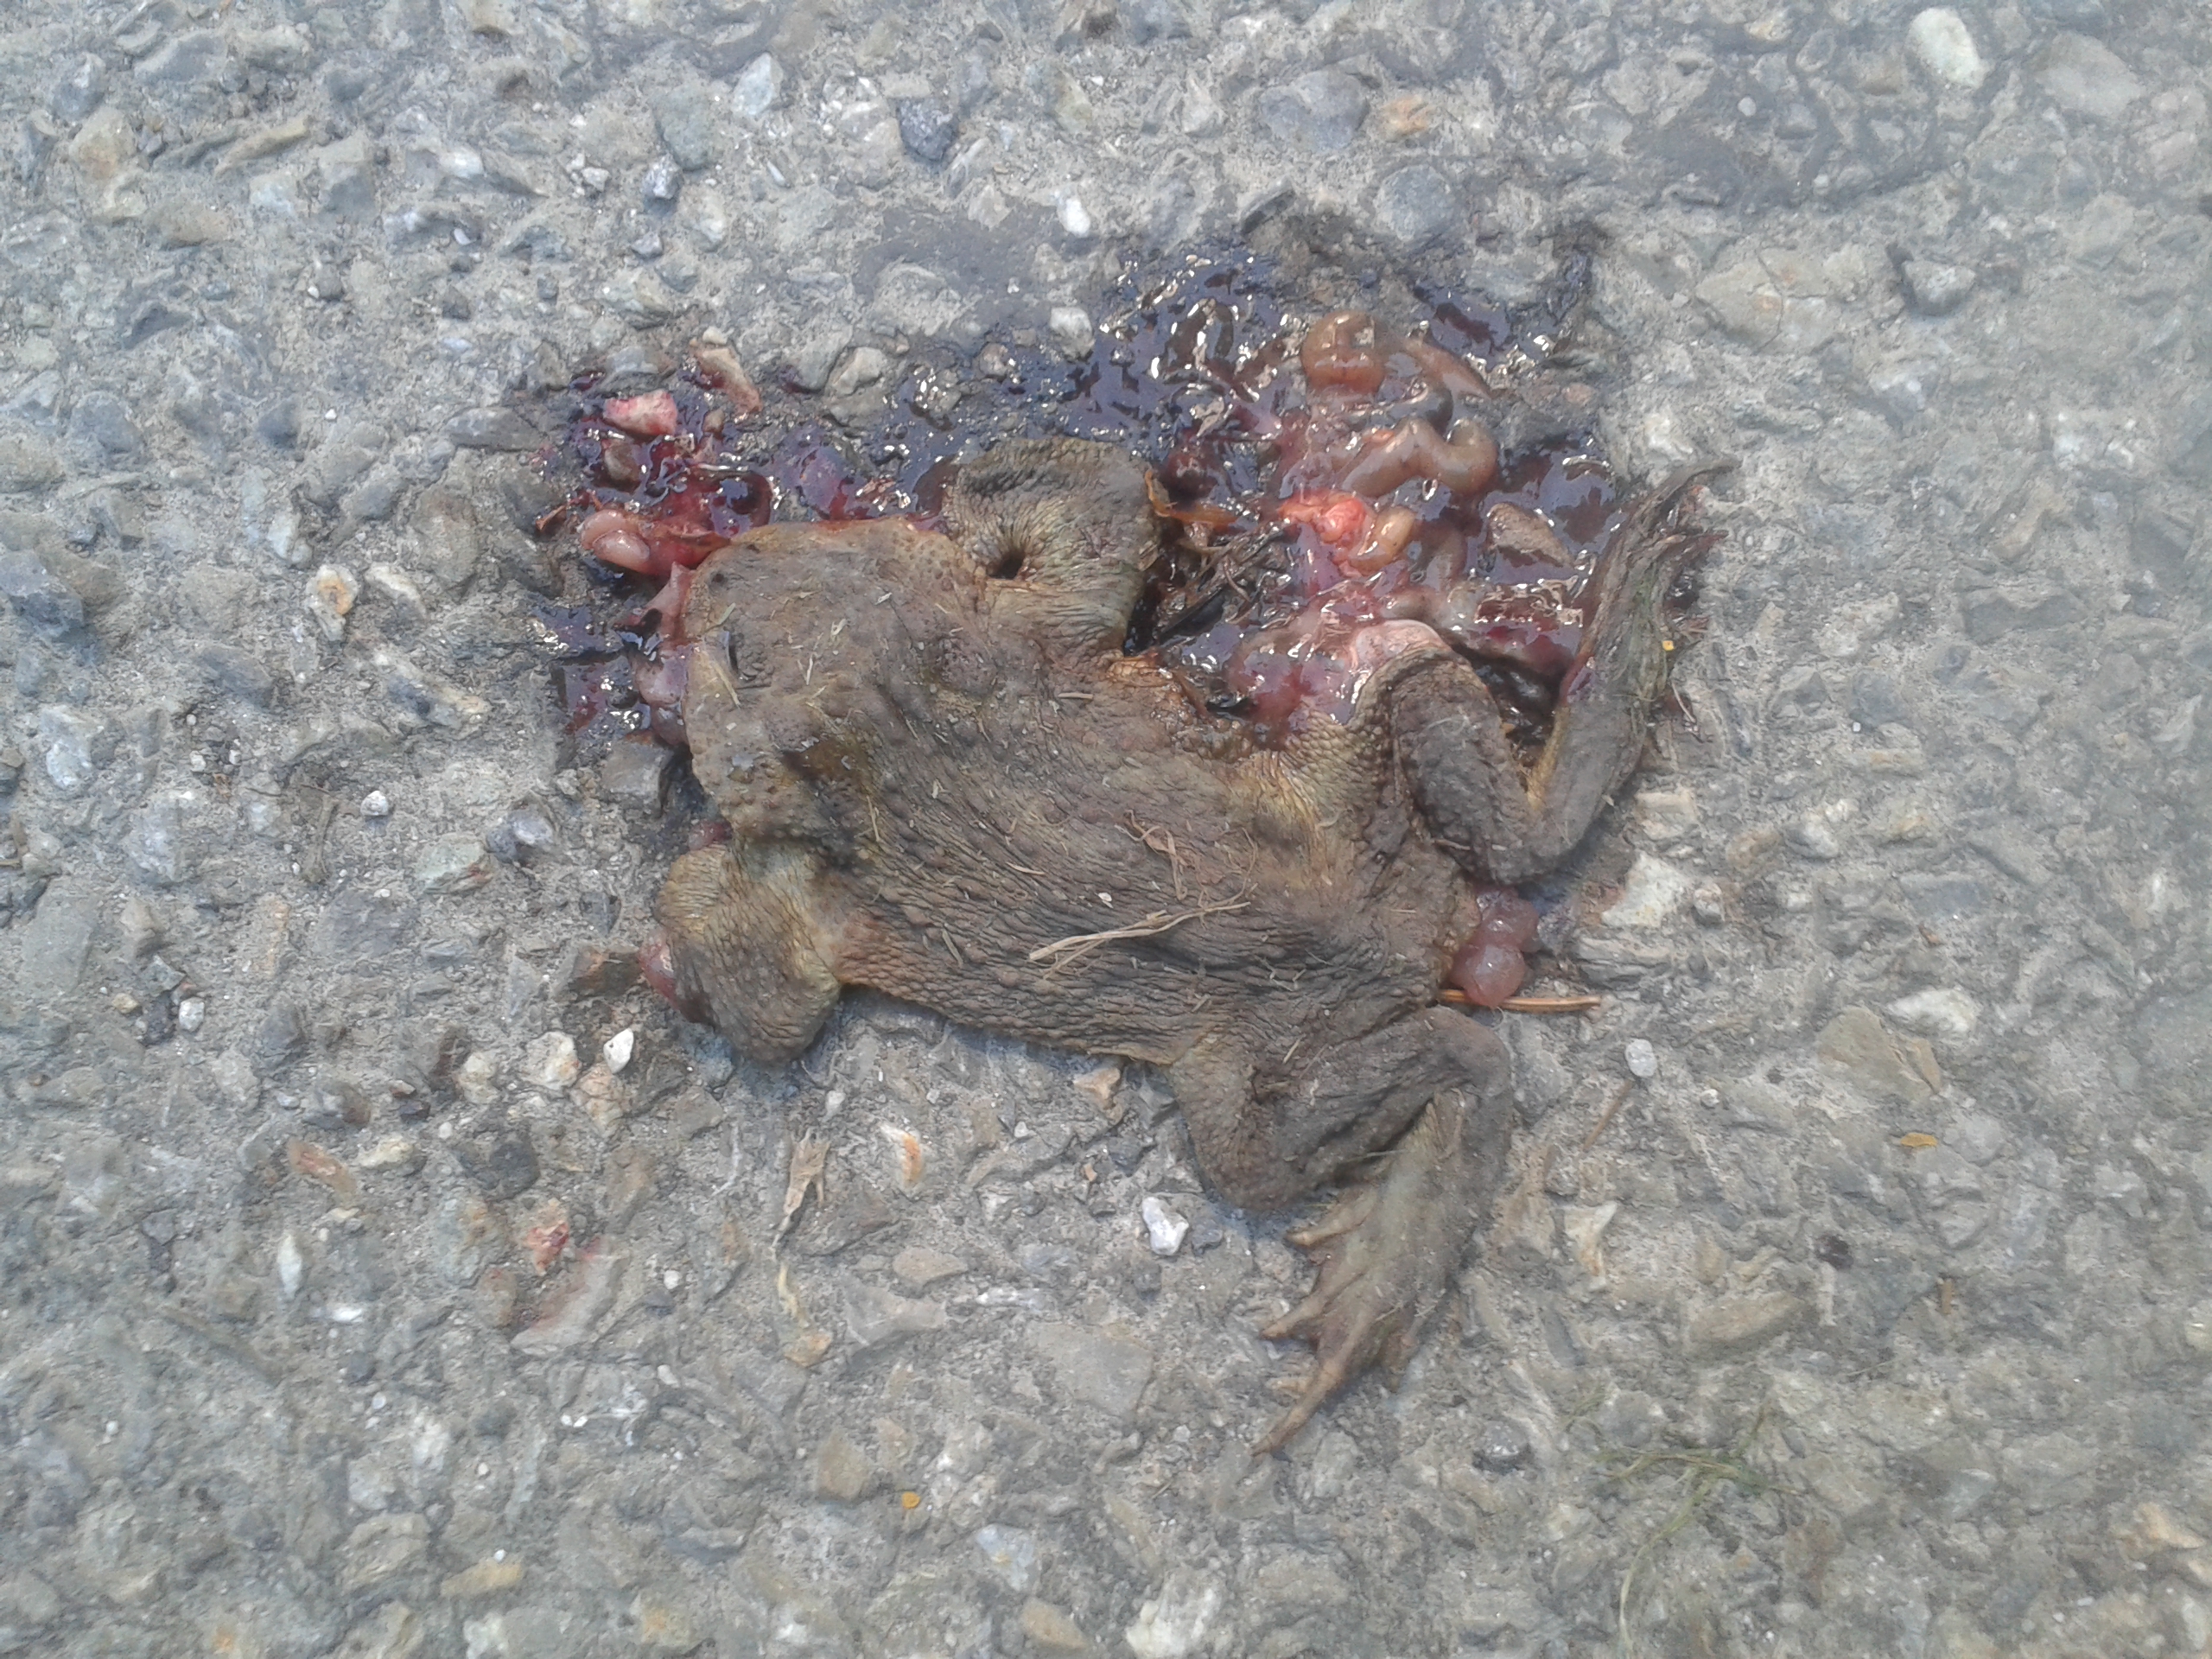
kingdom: Animalia
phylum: Chordata
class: Amphibia
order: Anura
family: Bufonidae
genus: Bufo
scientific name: Bufo bufo
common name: Common toad
